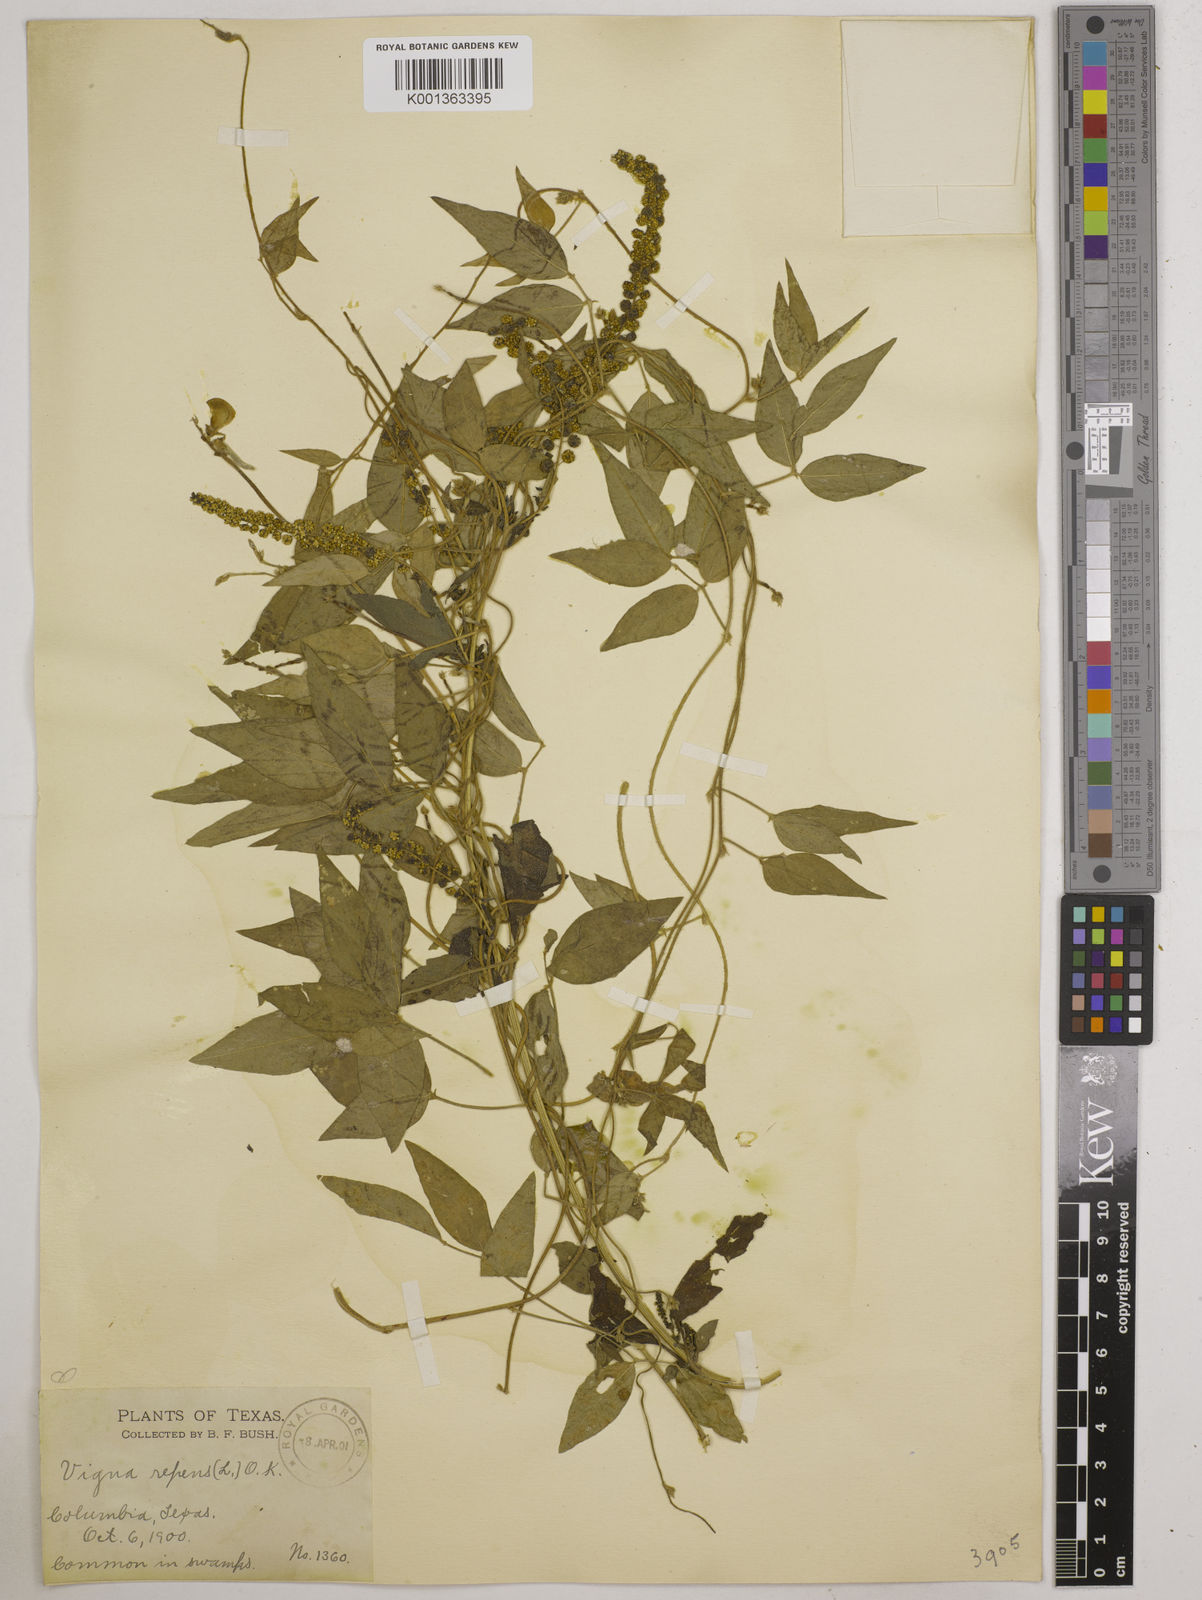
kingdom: Plantae
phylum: Tracheophyta
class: Magnoliopsida
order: Fabales
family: Fabaceae
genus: Vigna
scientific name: Vigna luteola
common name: Hairypod cowpea
